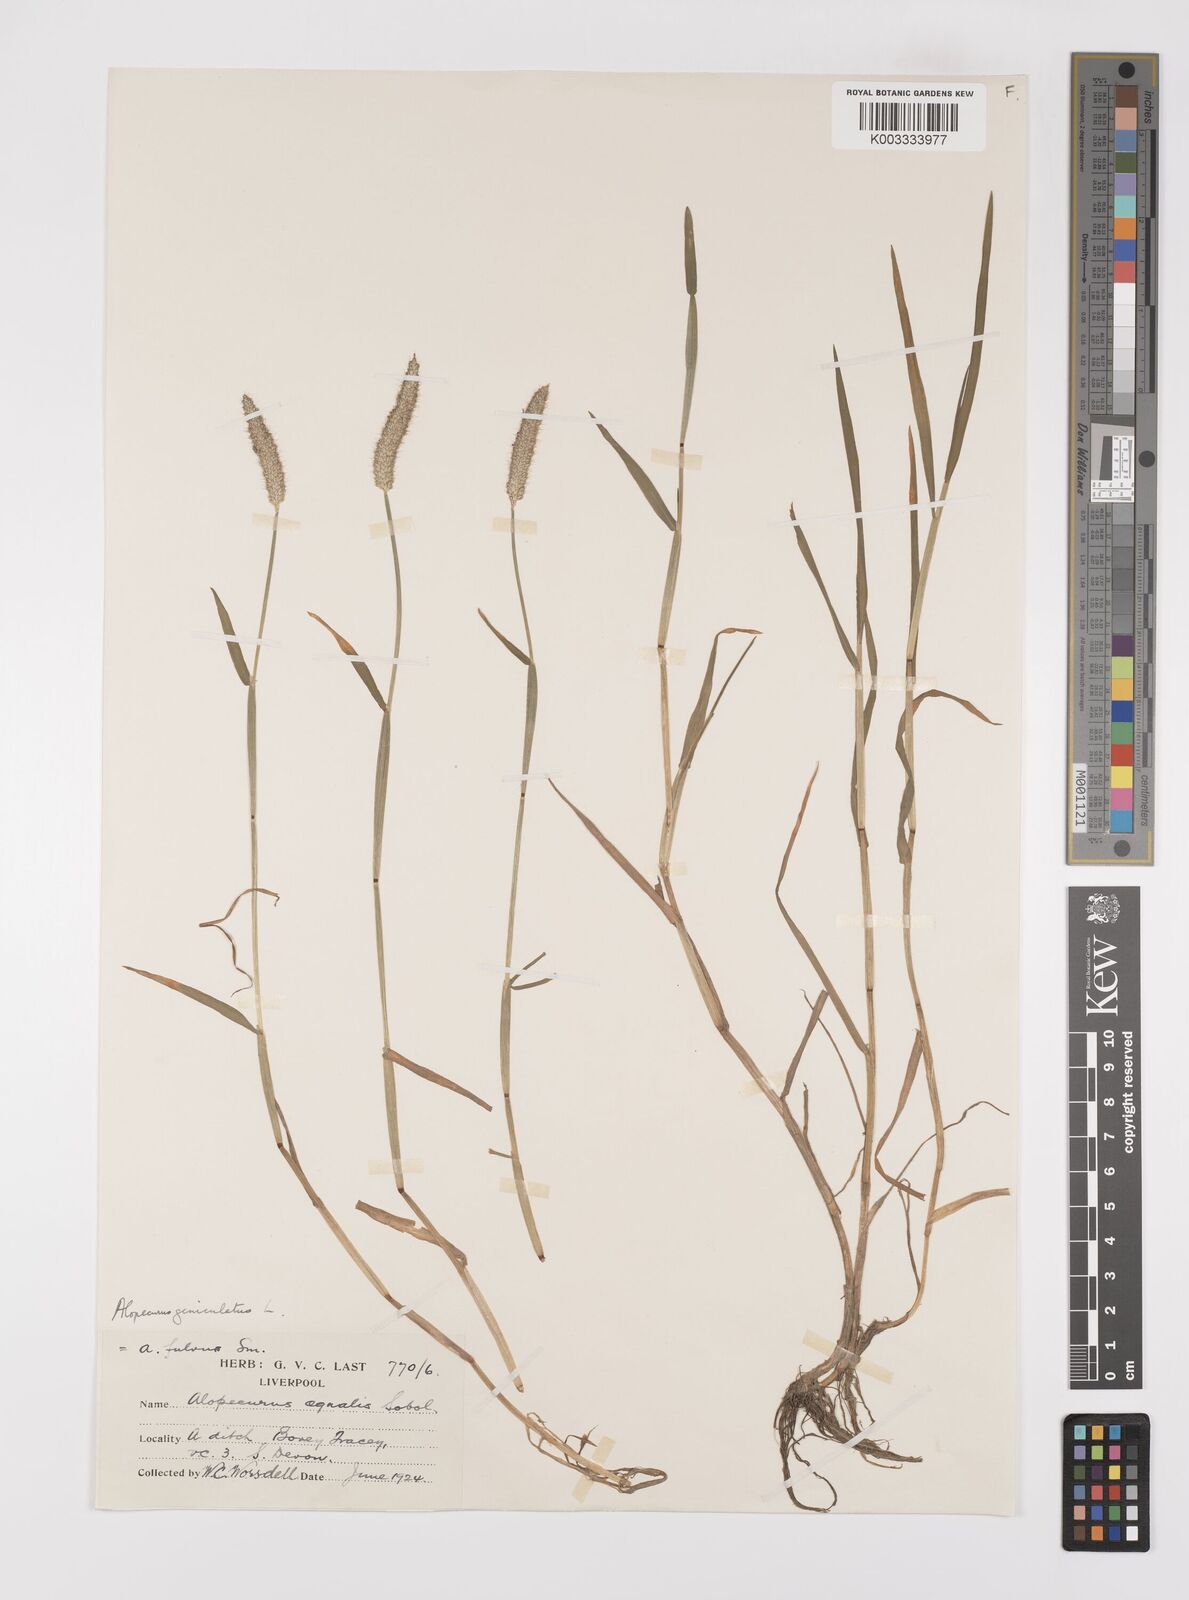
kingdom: Plantae
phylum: Tracheophyta
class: Liliopsida
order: Poales
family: Poaceae
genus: Alopecurus
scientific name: Alopecurus geniculatus
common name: Water foxtail
